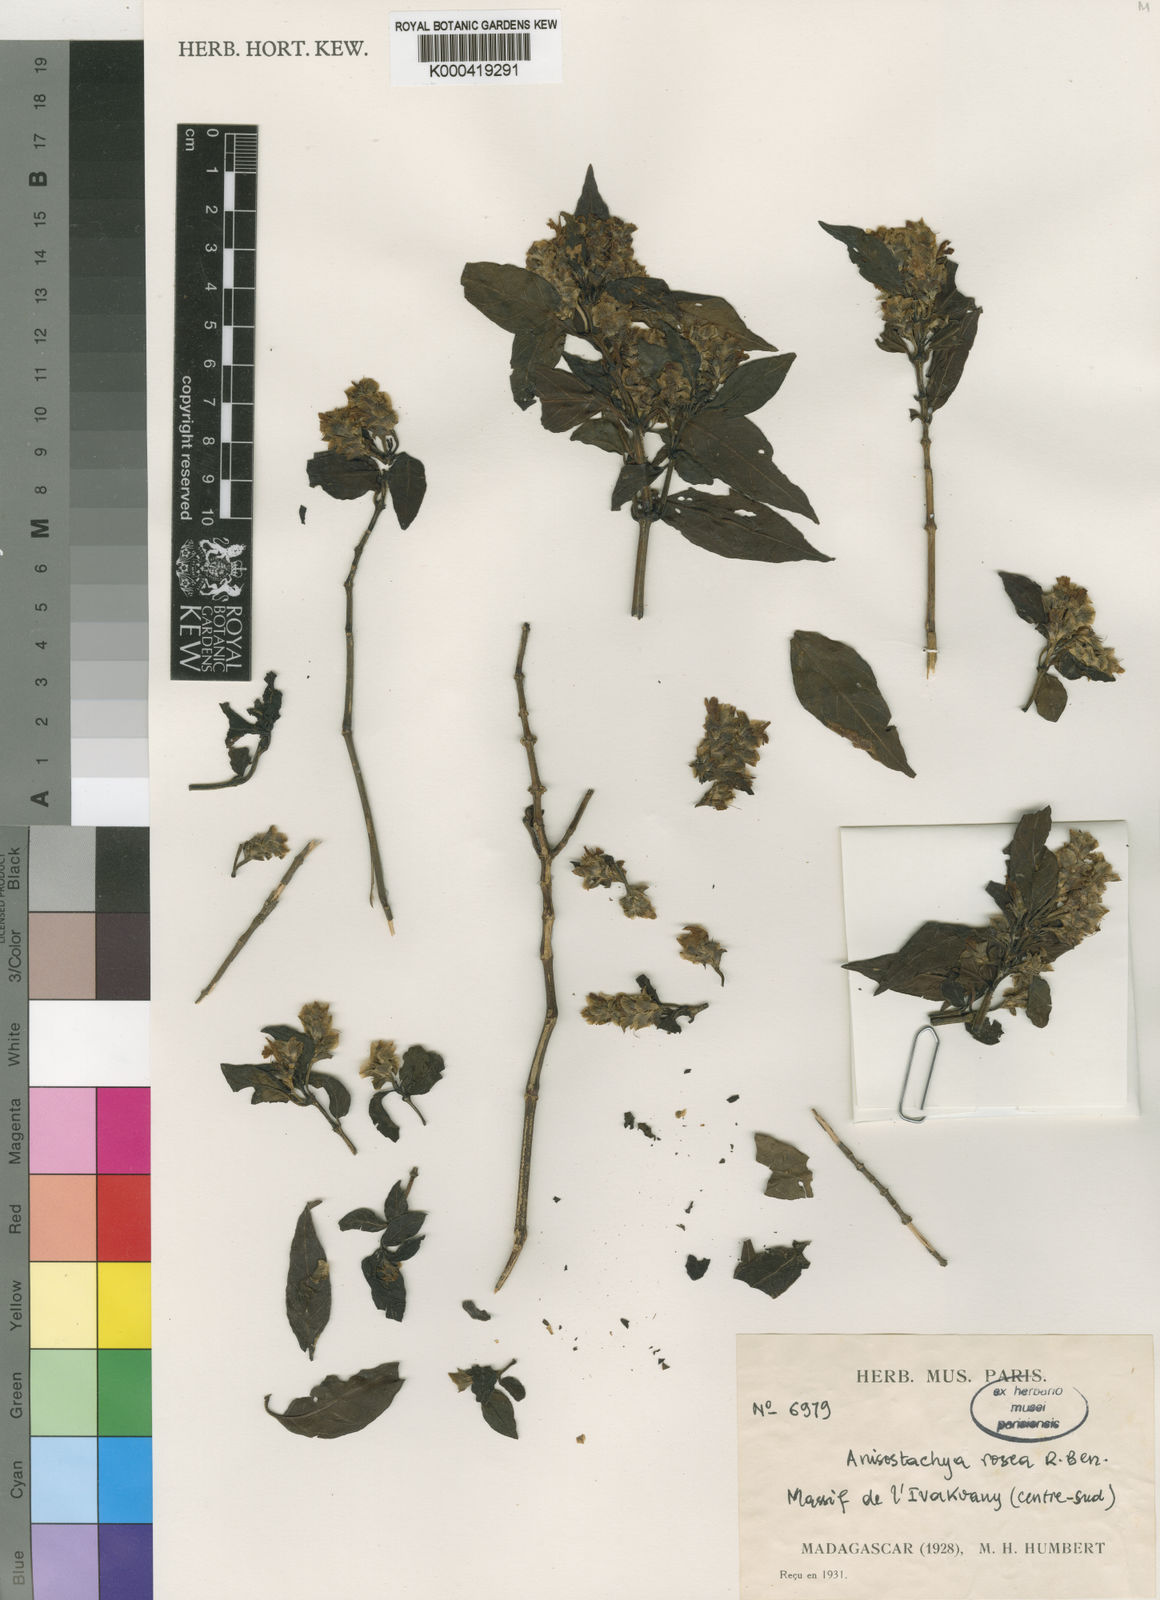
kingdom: Plantae
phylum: Tracheophyta
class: Magnoliopsida
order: Lamiales
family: Acanthaceae
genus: Eranthemum
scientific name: Eranthemum roseum
